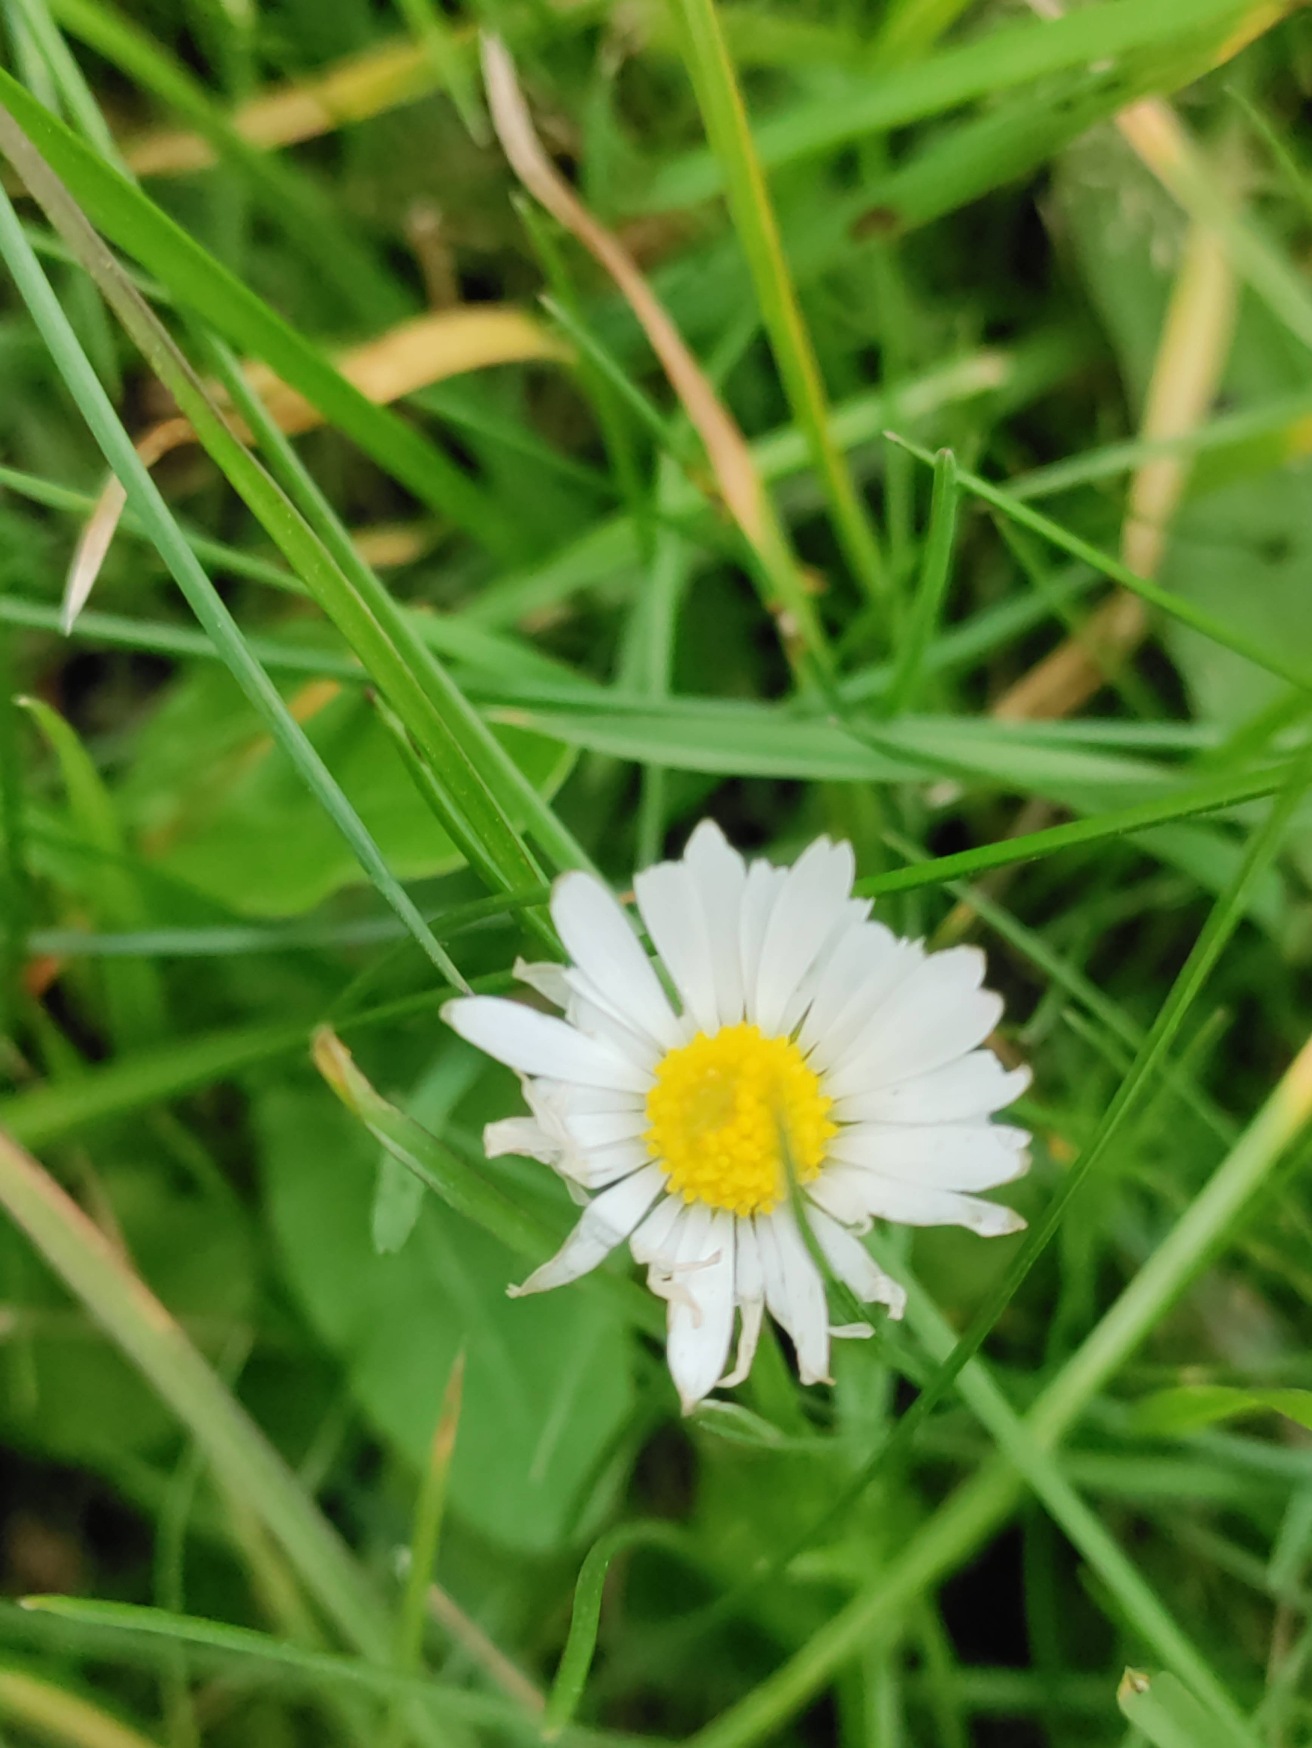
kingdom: Plantae
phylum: Tracheophyta
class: Magnoliopsida
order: Asterales
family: Asteraceae
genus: Bellis
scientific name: Bellis perennis
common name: Tusindfryd
